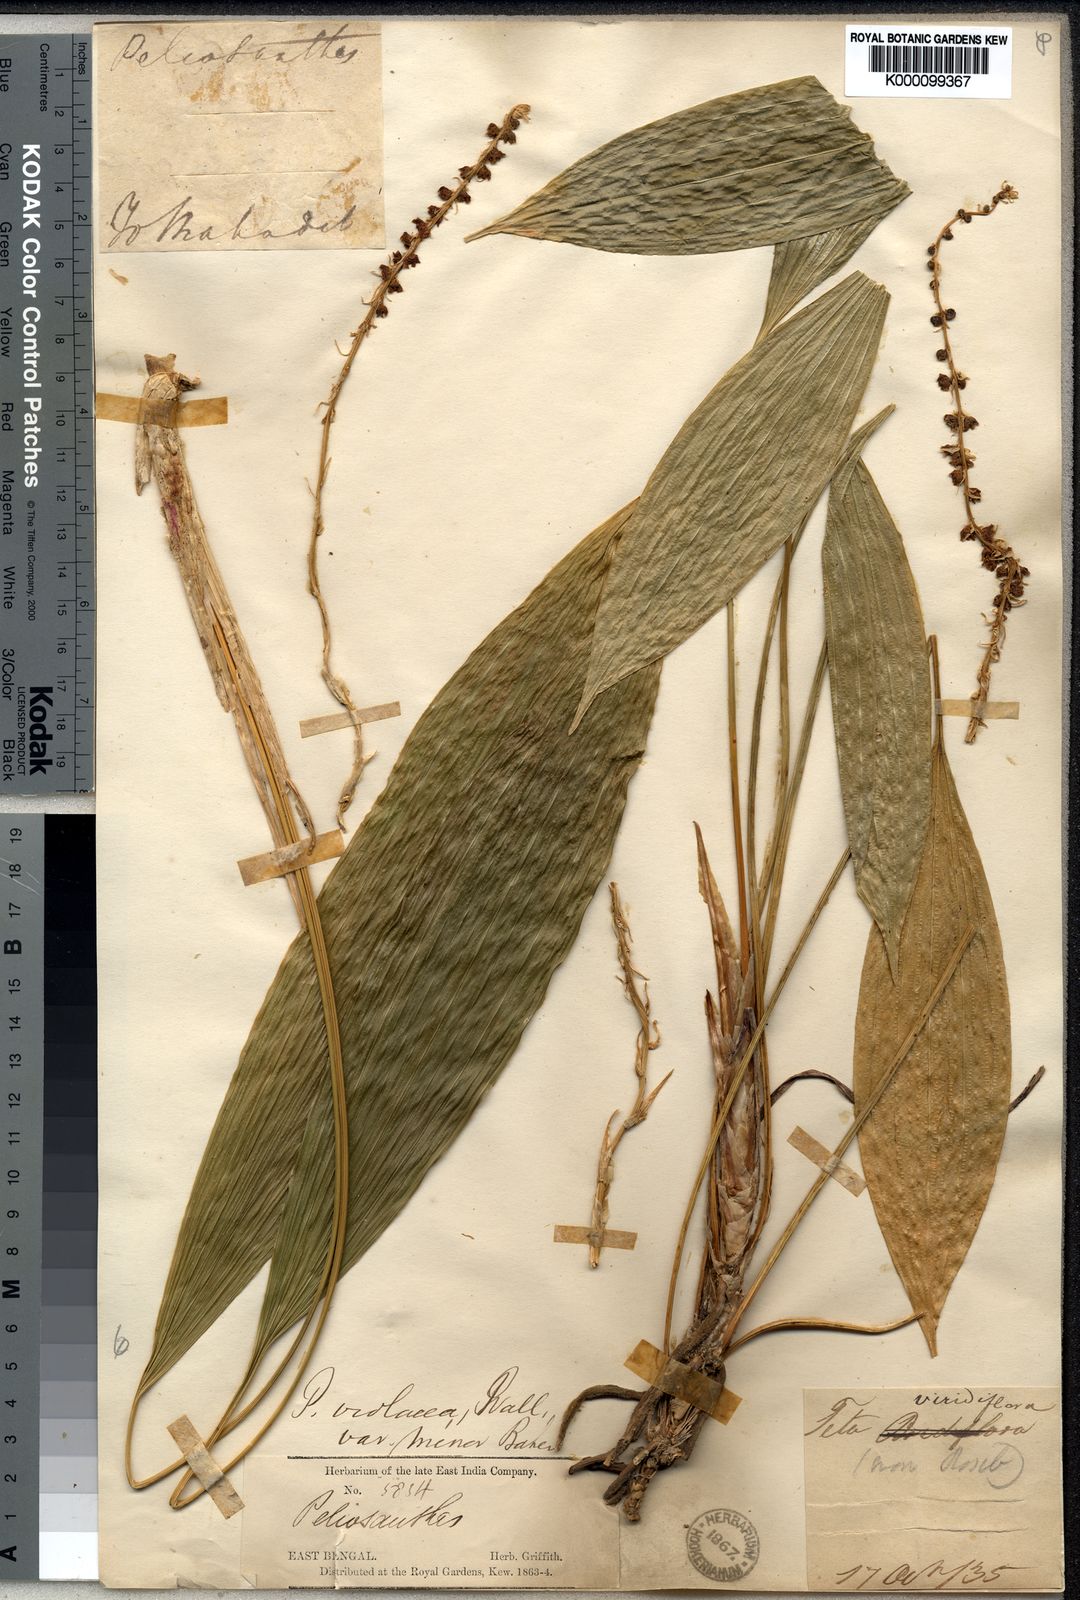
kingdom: Plantae
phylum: Tracheophyta
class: Liliopsida
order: Asparagales
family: Asparagaceae
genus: Peliosanthes
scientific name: Peliosanthes griffithii
